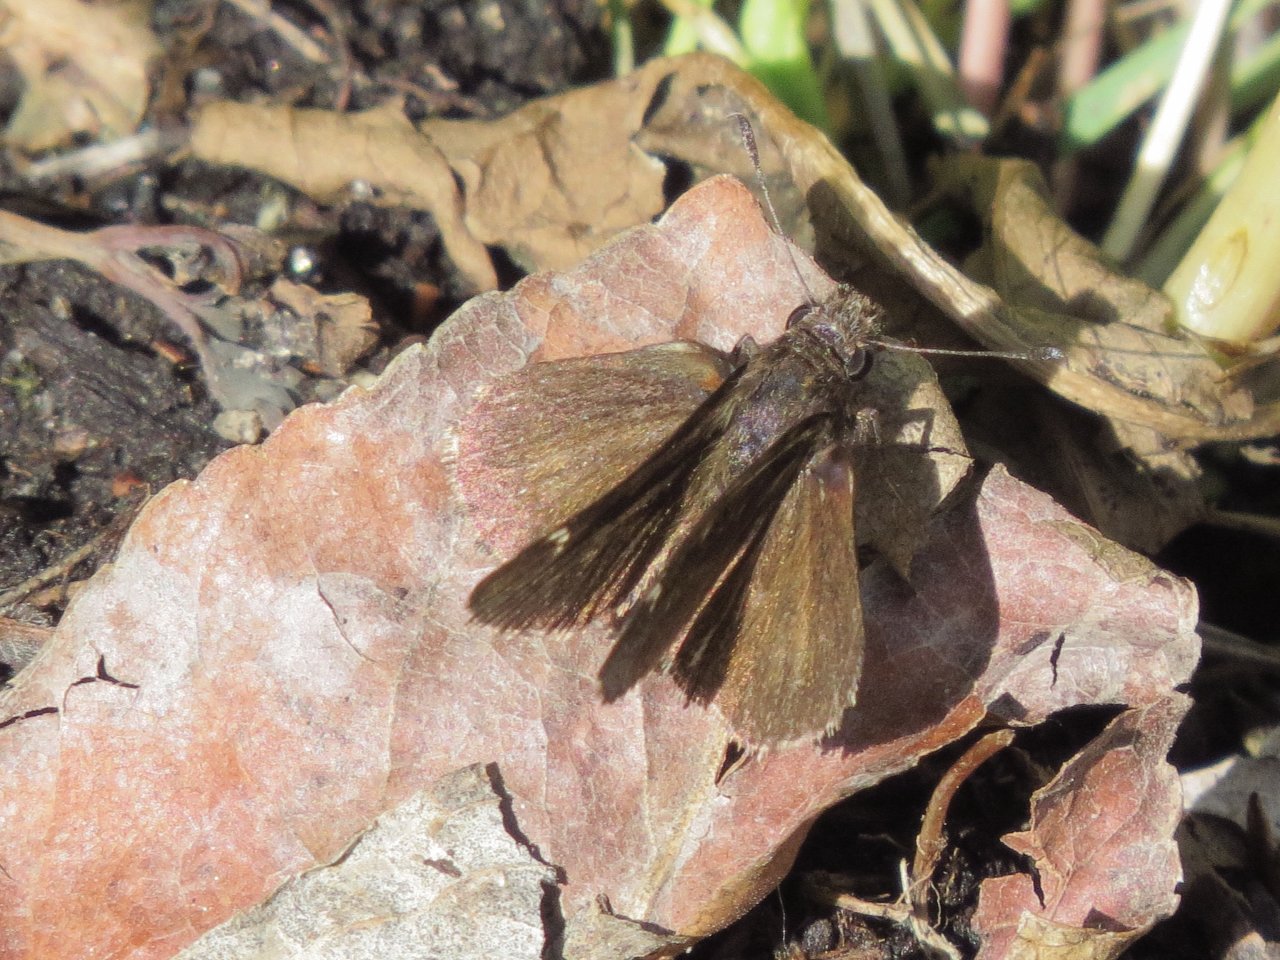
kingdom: Animalia
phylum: Arthropoda
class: Insecta
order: Lepidoptera
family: Hesperiidae
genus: Mastor
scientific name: Mastor vialis
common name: Common Roadside-Skipper
